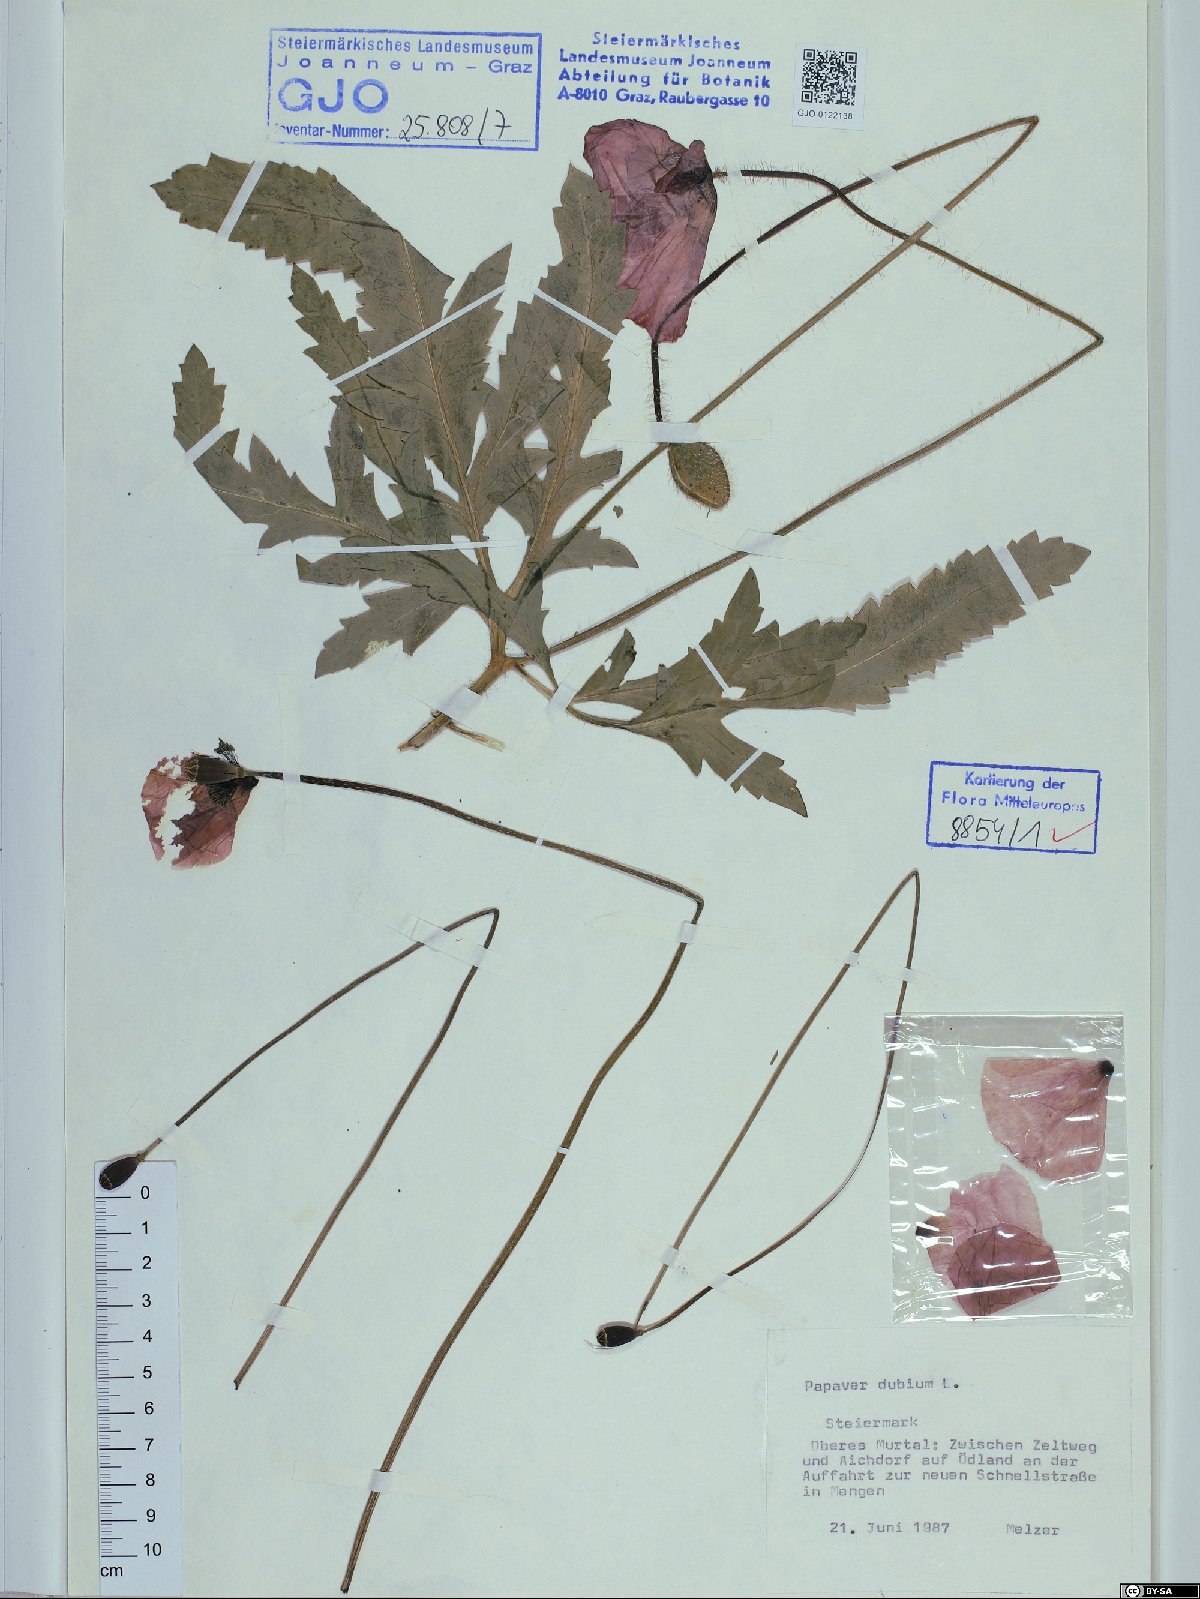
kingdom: Plantae
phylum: Tracheophyta
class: Magnoliopsida
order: Ranunculales
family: Papaveraceae
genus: Papaver
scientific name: Papaver dubium
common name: Long-headed poppy
